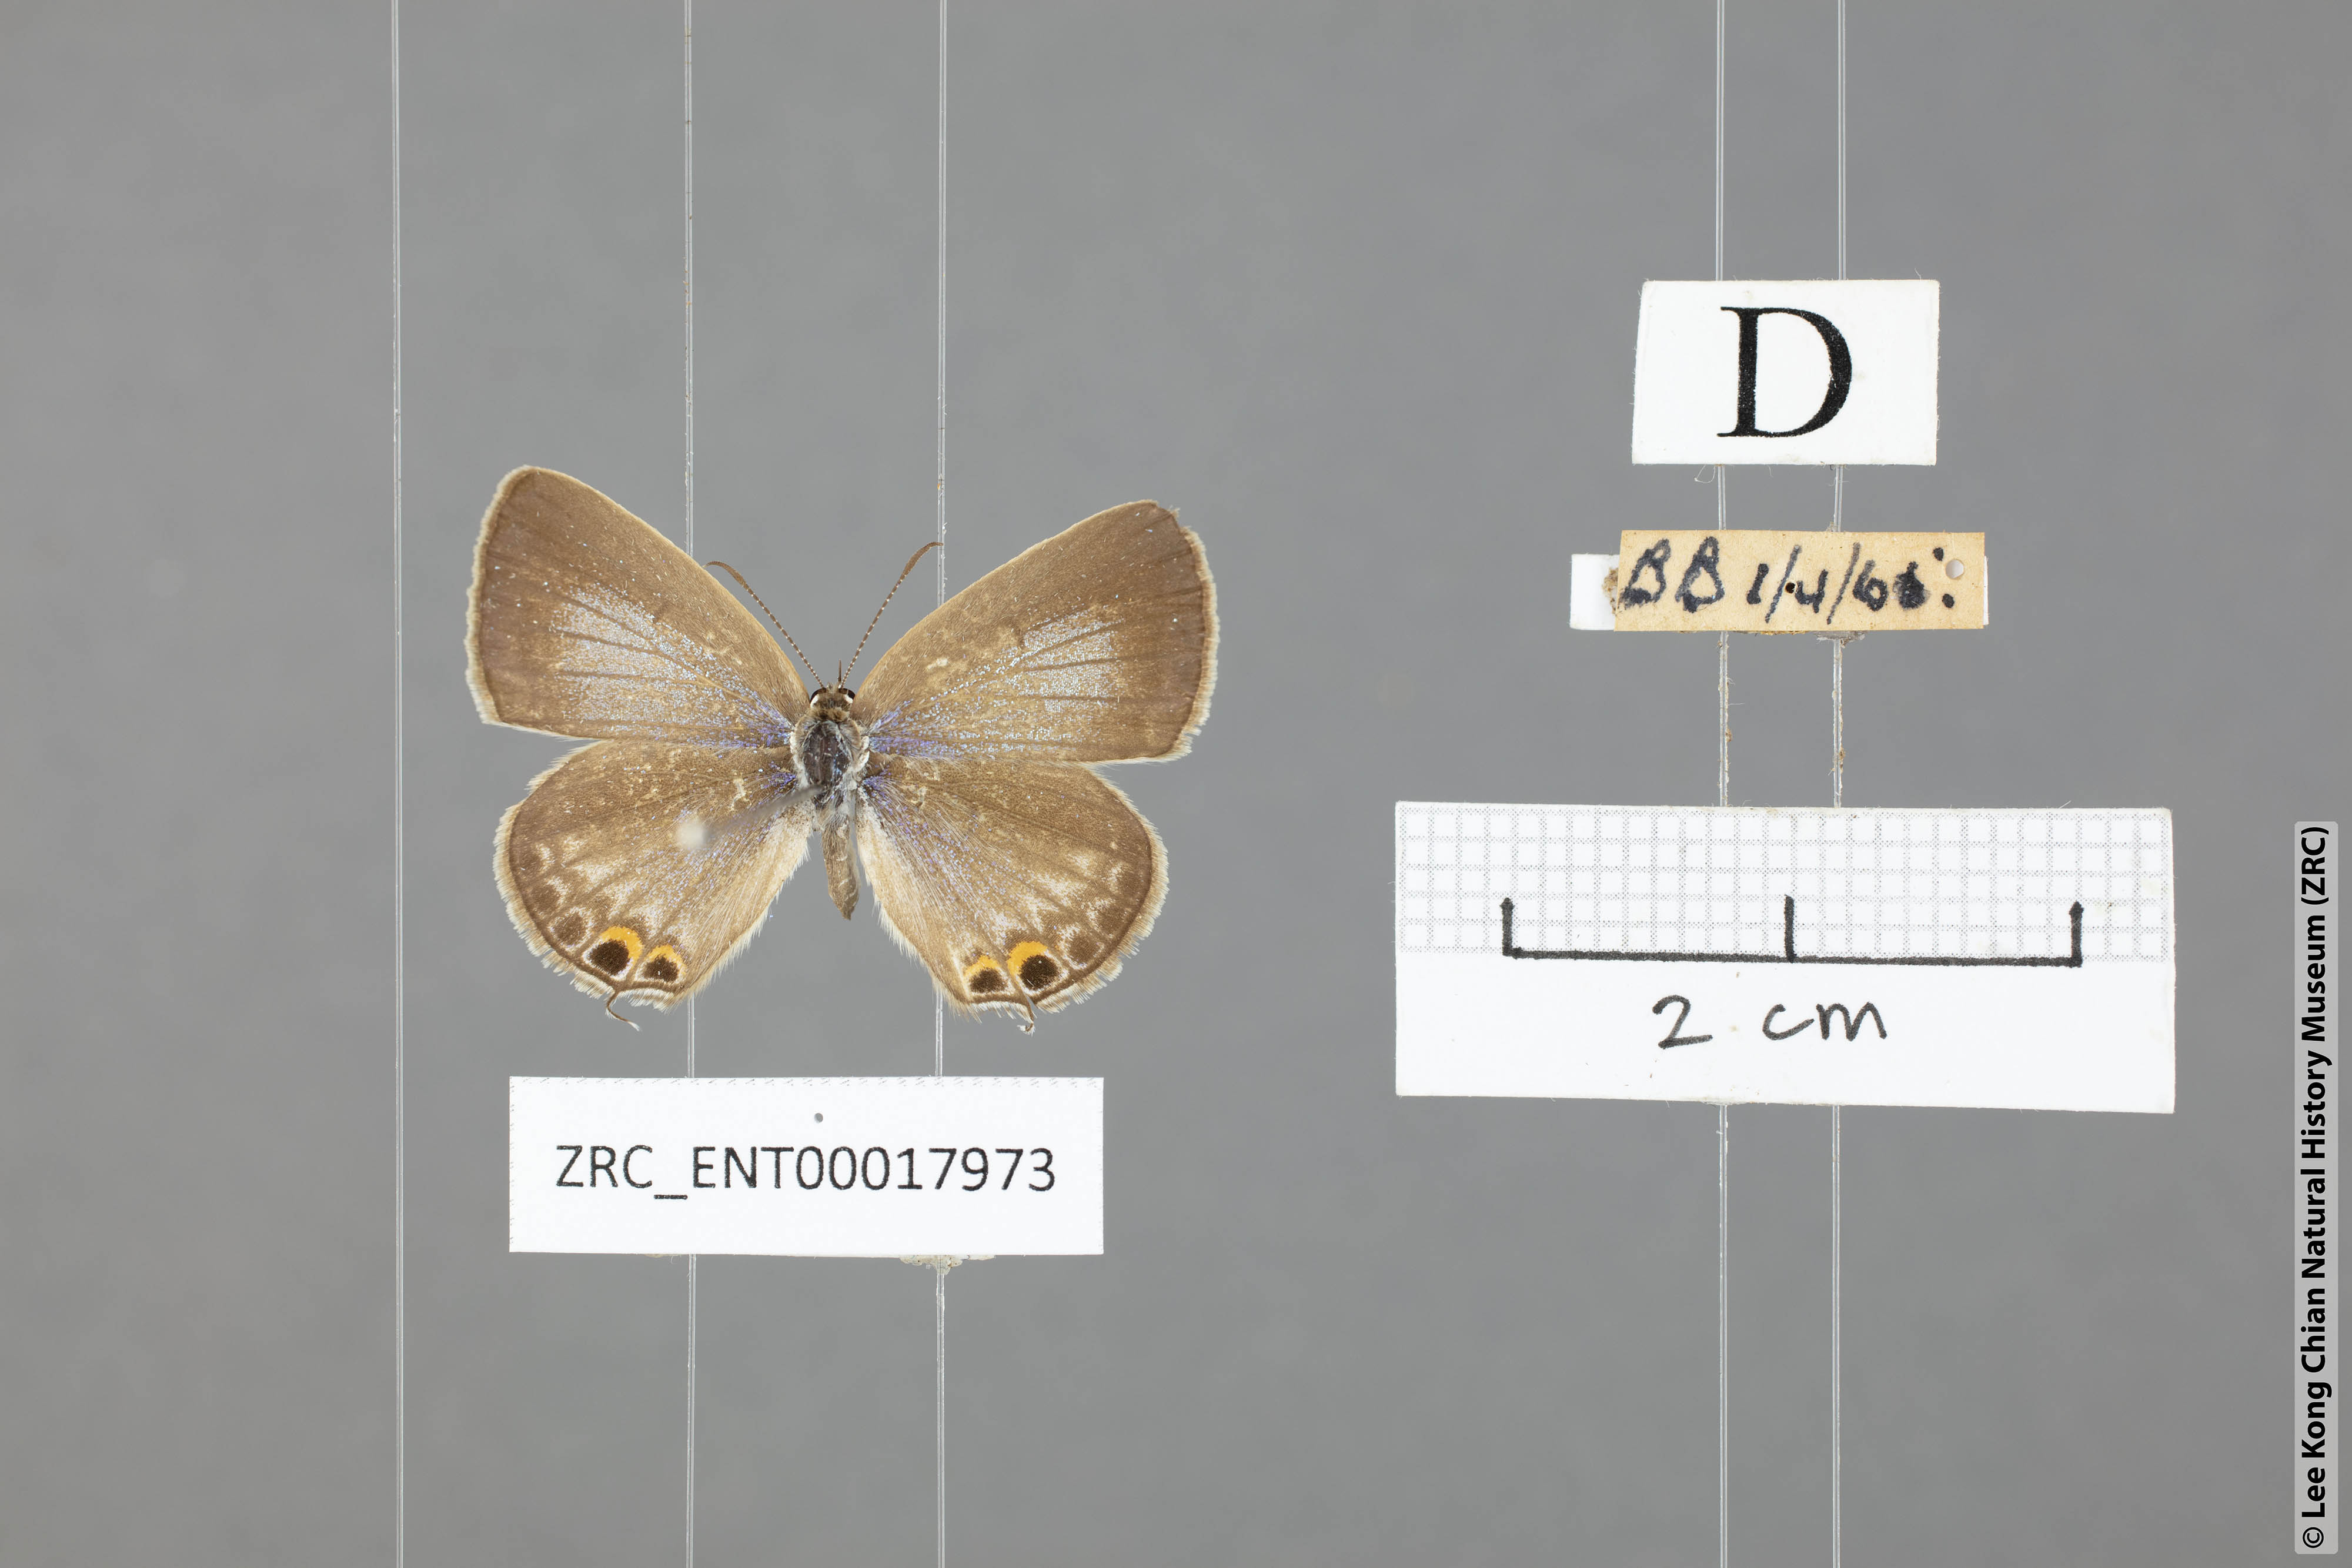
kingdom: Animalia
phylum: Arthropoda
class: Insecta
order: Lepidoptera
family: Lycaenidae
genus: Euchrysops
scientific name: Euchrysops cnejus
